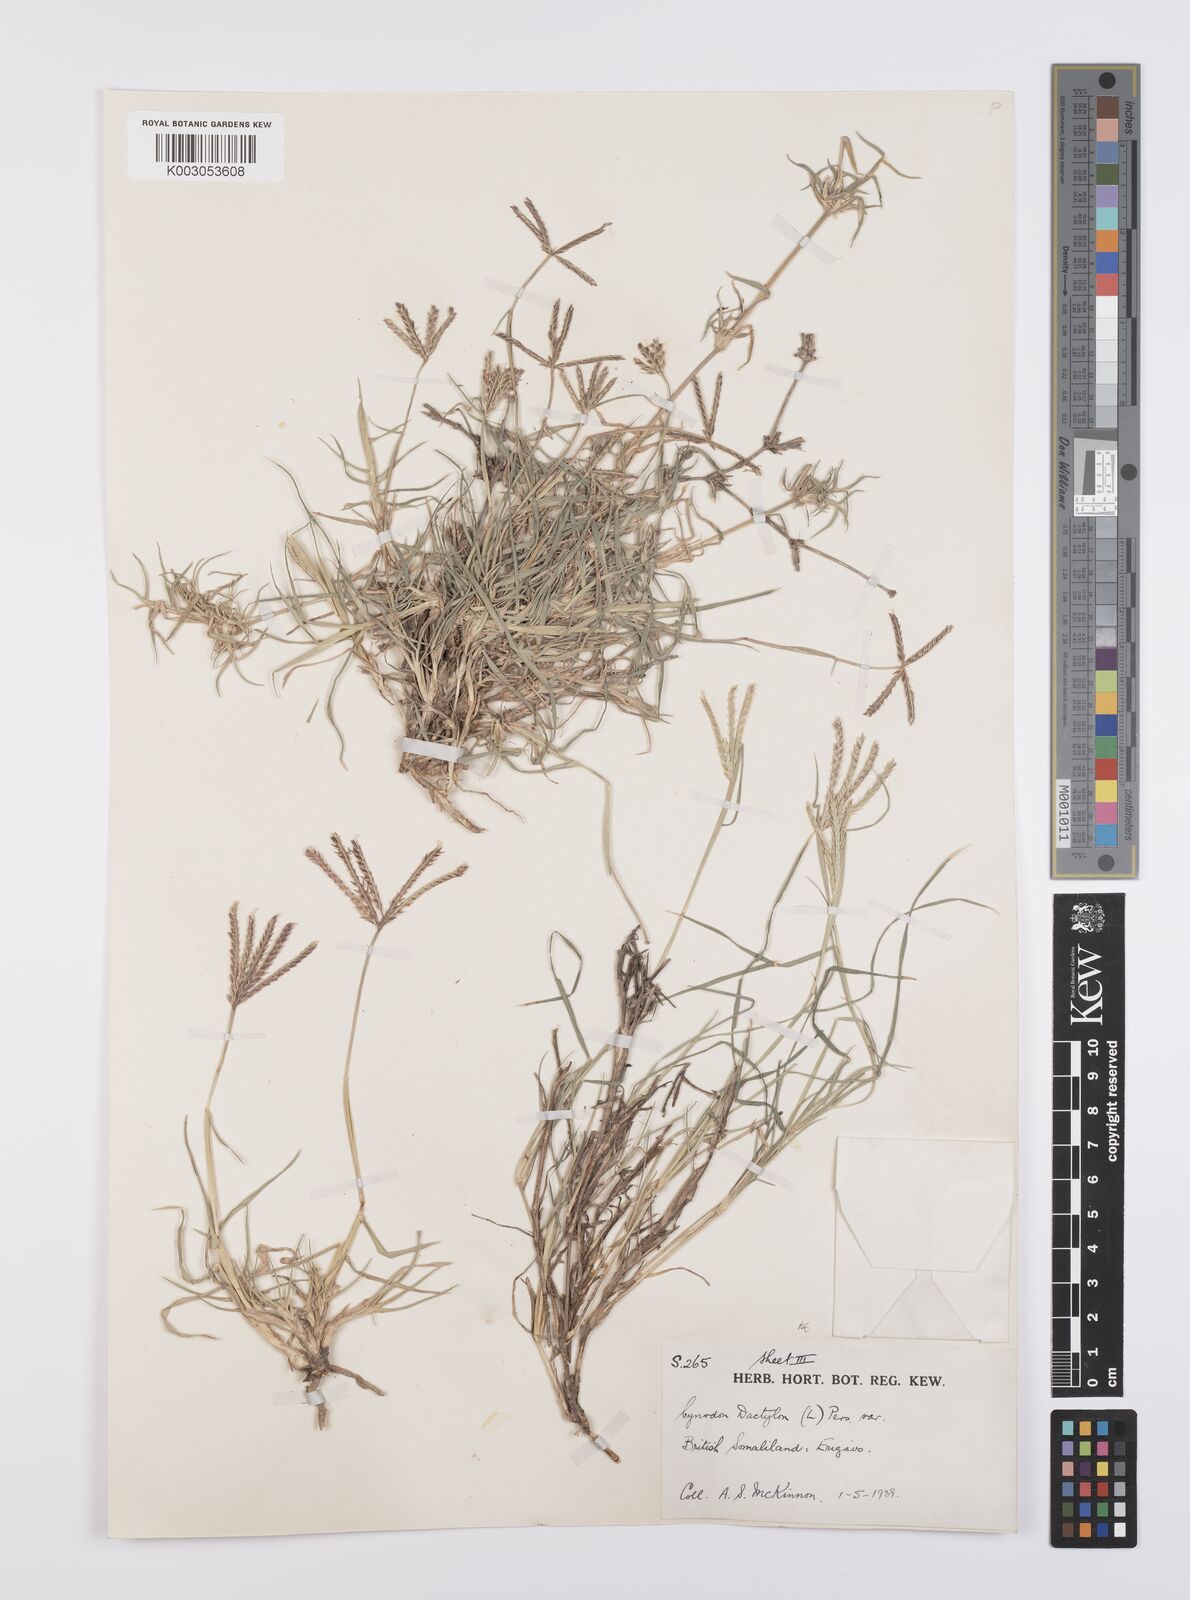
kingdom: Plantae
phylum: Tracheophyta
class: Liliopsida
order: Poales
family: Poaceae
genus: Cynodon
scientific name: Cynodon dactylon
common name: Bermuda grass
